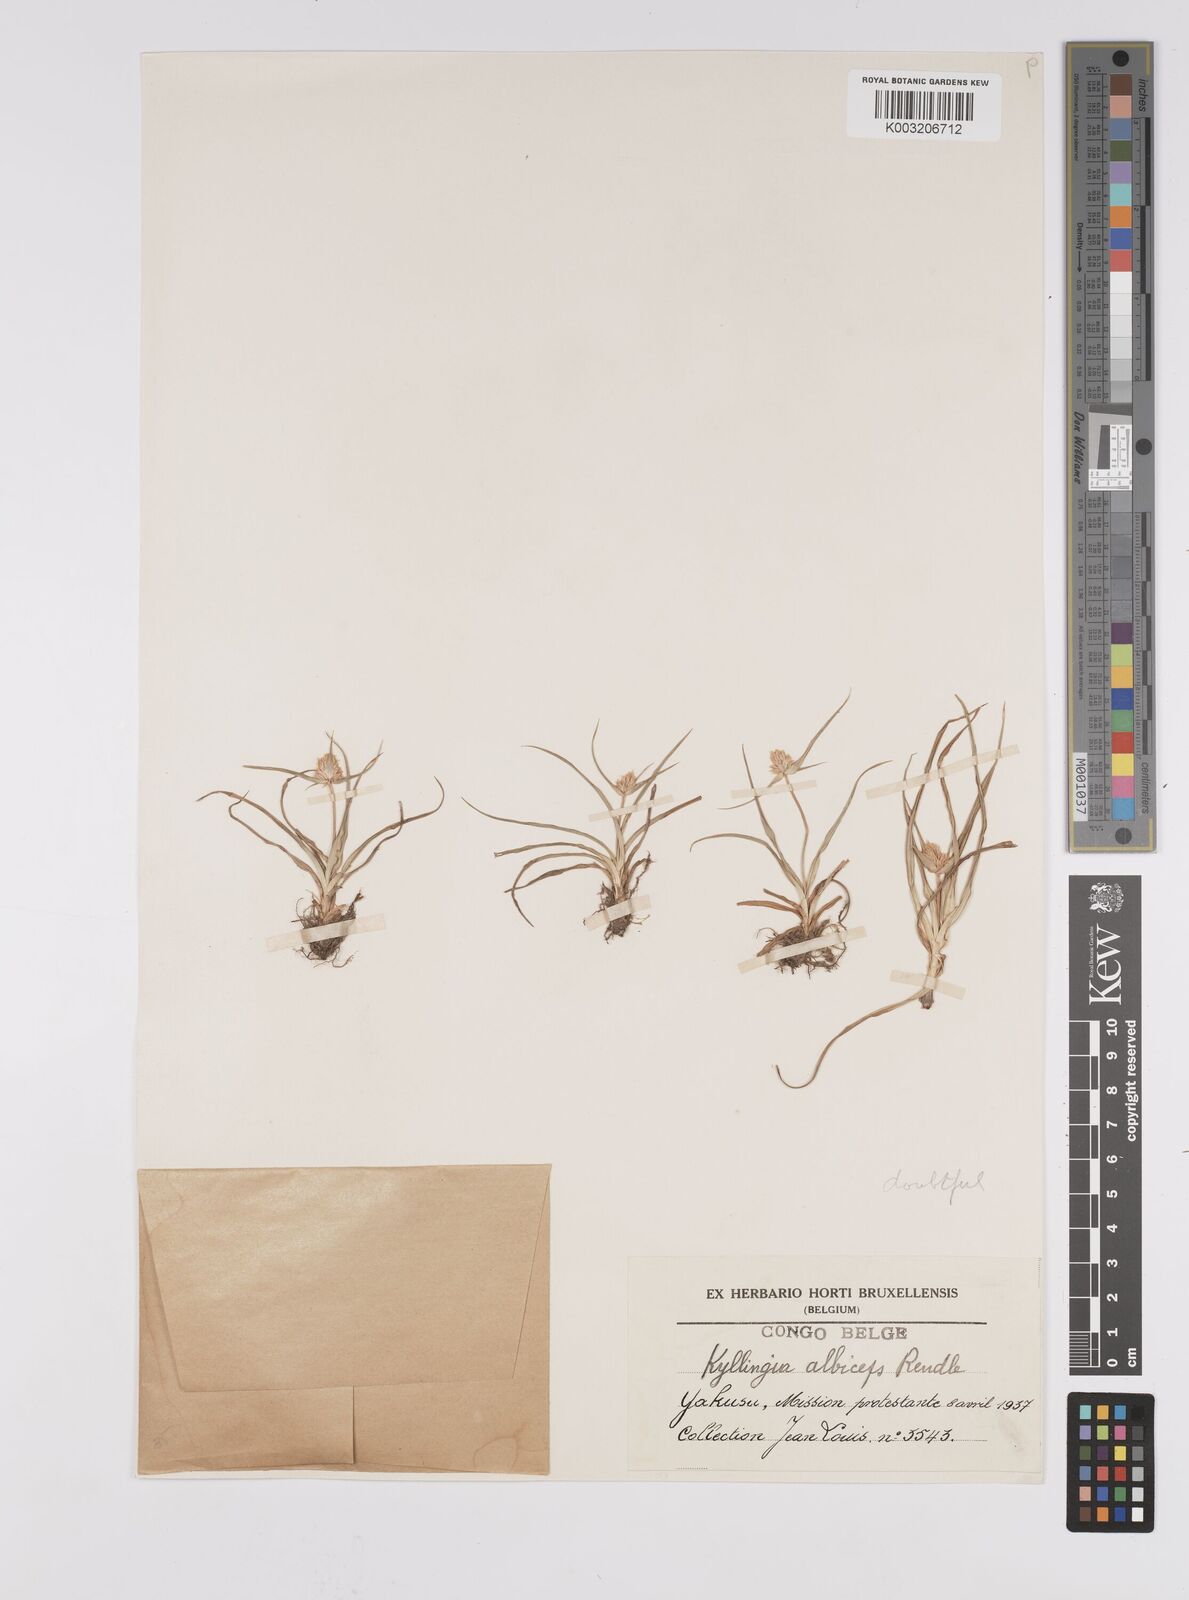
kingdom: Plantae
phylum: Tracheophyta
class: Liliopsida
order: Poales
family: Cyperaceae
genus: Cyperus
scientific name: Cyperus conglobatus
